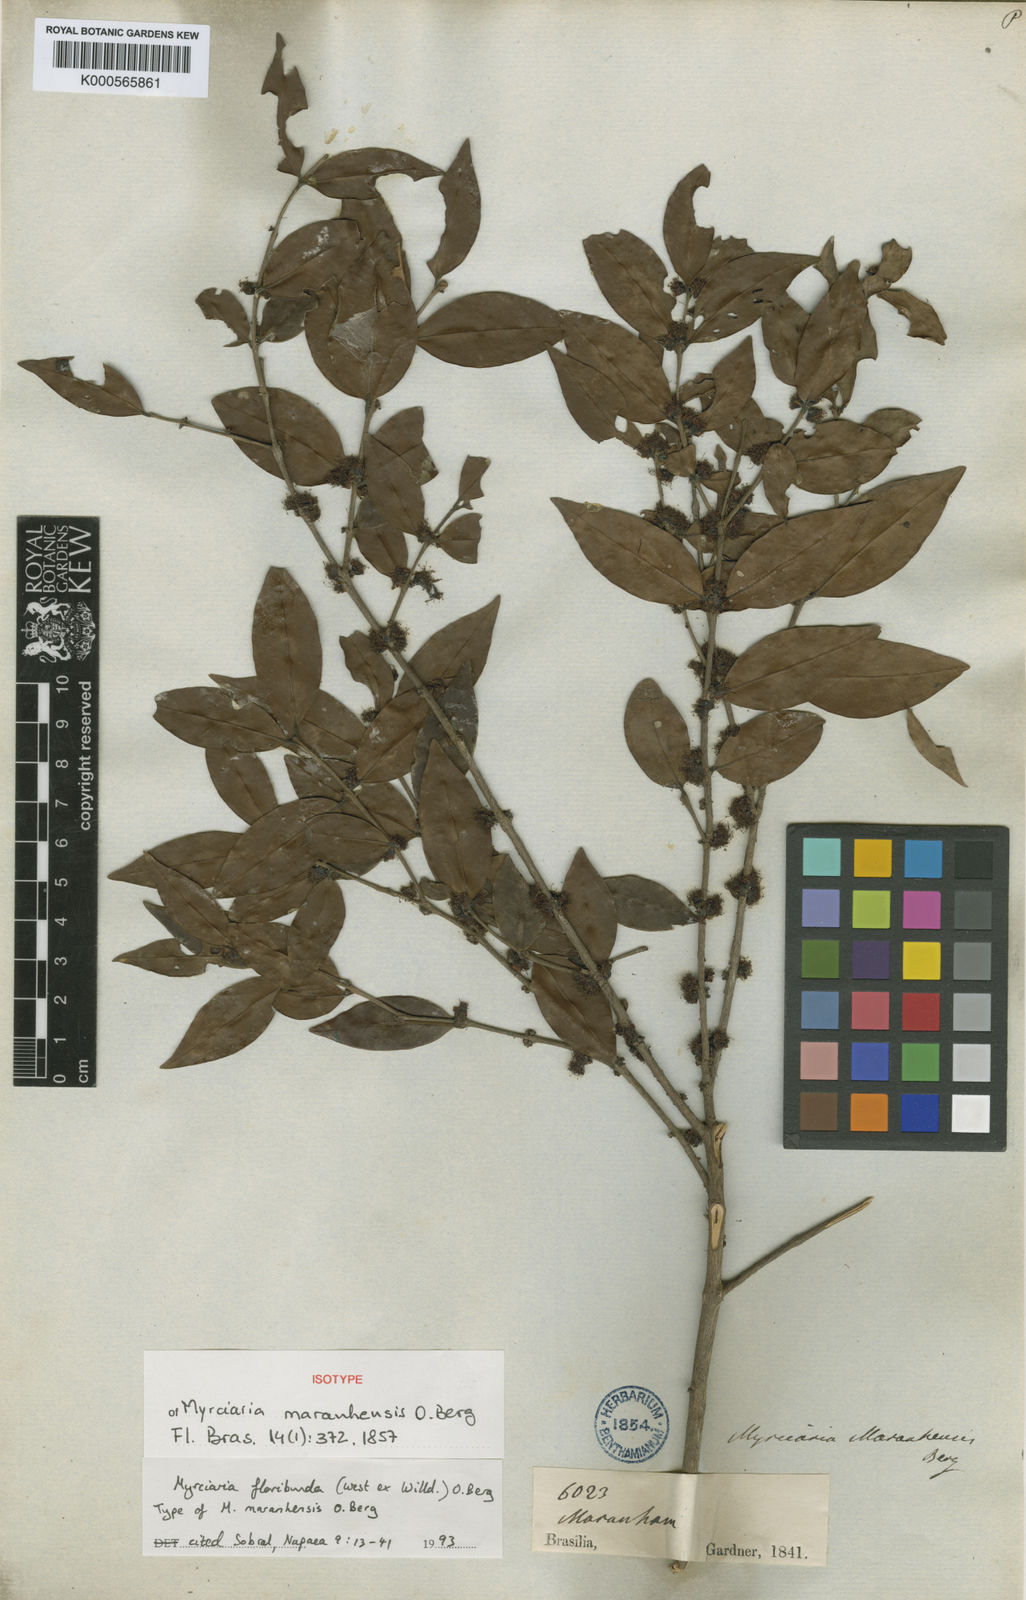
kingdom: Plantae
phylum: Tracheophyta
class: Magnoliopsida
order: Myrtales
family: Myrtaceae
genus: Myrciaria
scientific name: Myrciaria floribunda
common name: Guavaberry
